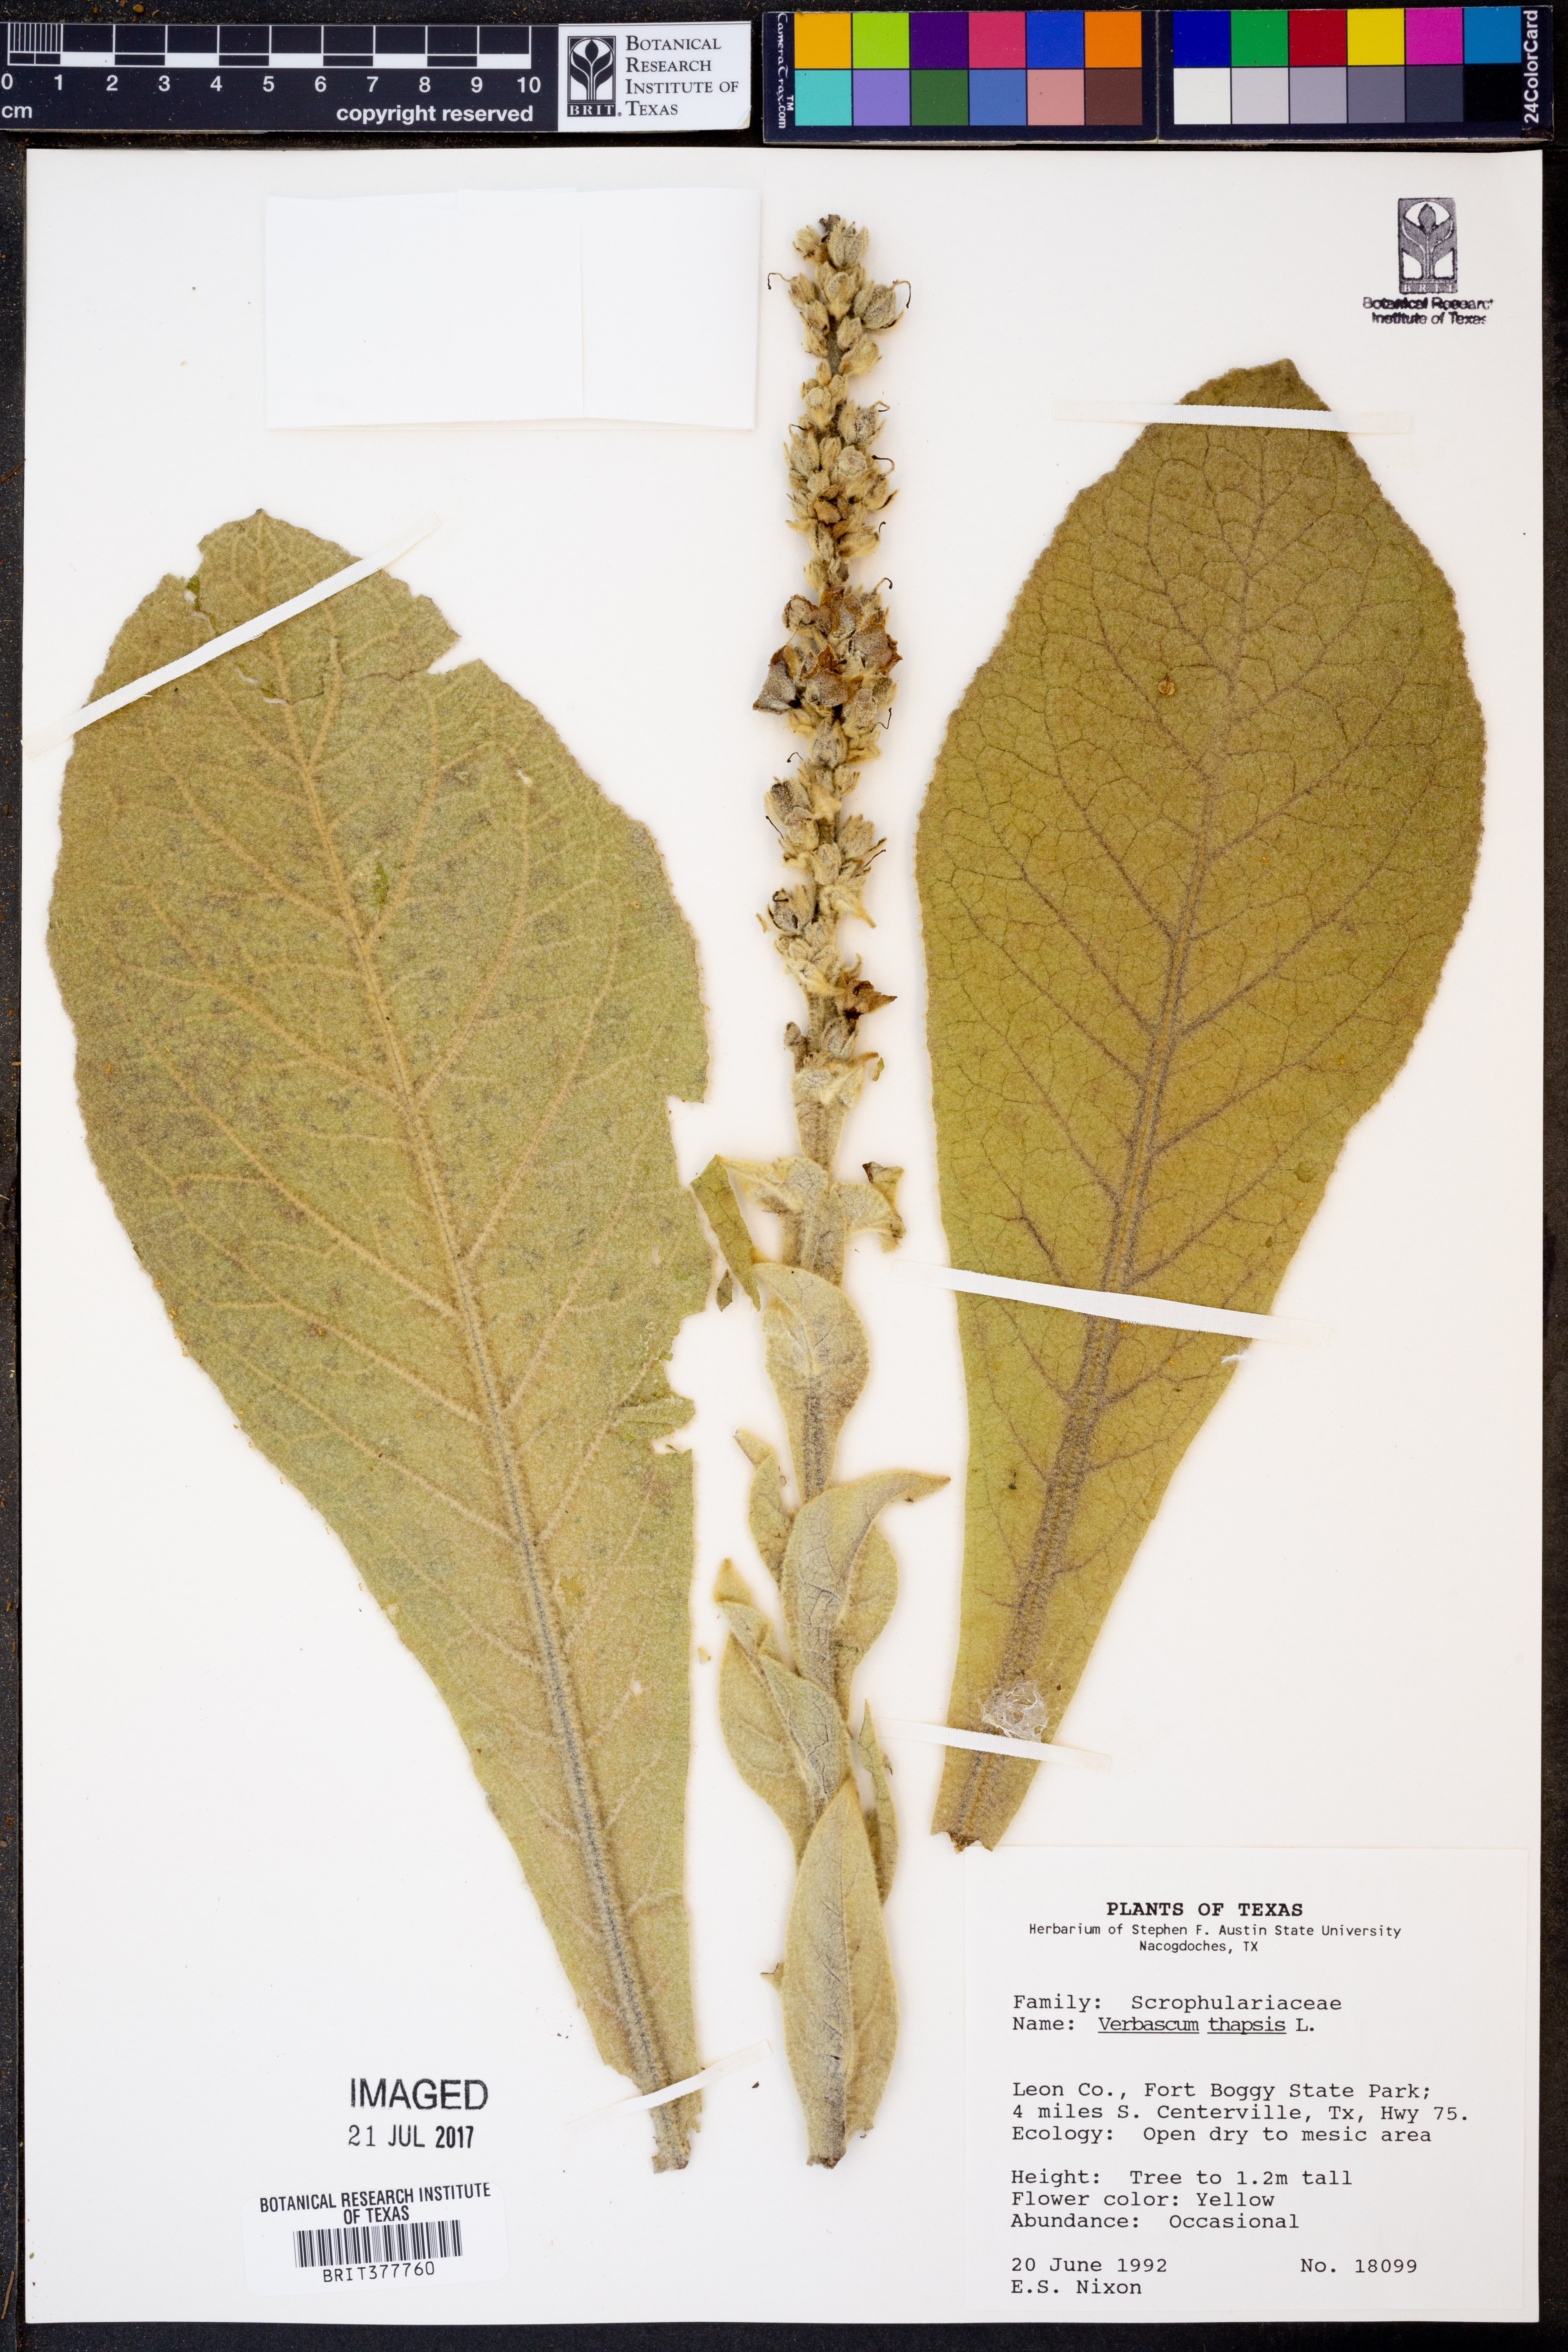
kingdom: Plantae
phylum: Tracheophyta
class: Magnoliopsida
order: Lamiales
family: Scrophulariaceae
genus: Verbascum
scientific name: Verbascum thapsus
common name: Common mullein
